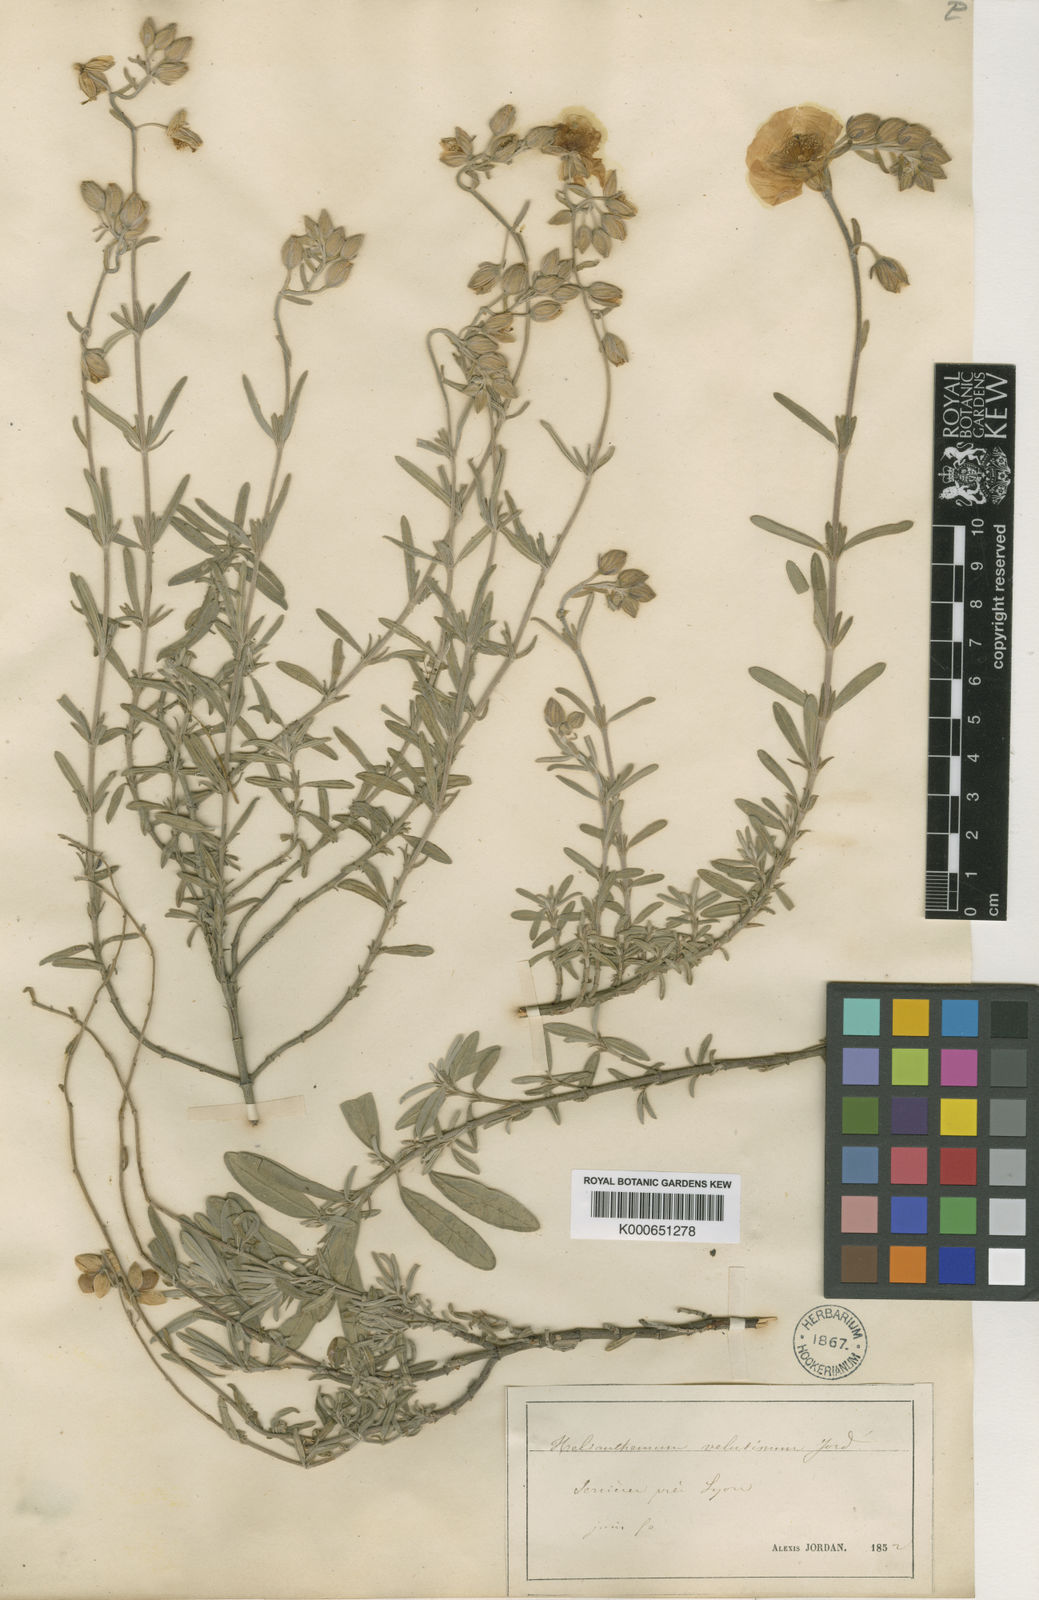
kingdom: Plantae
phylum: Tracheophyta
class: Magnoliopsida
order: Malvales
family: Cistaceae
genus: Helianthemum
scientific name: Helianthemum apenninum
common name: White rock-rose
